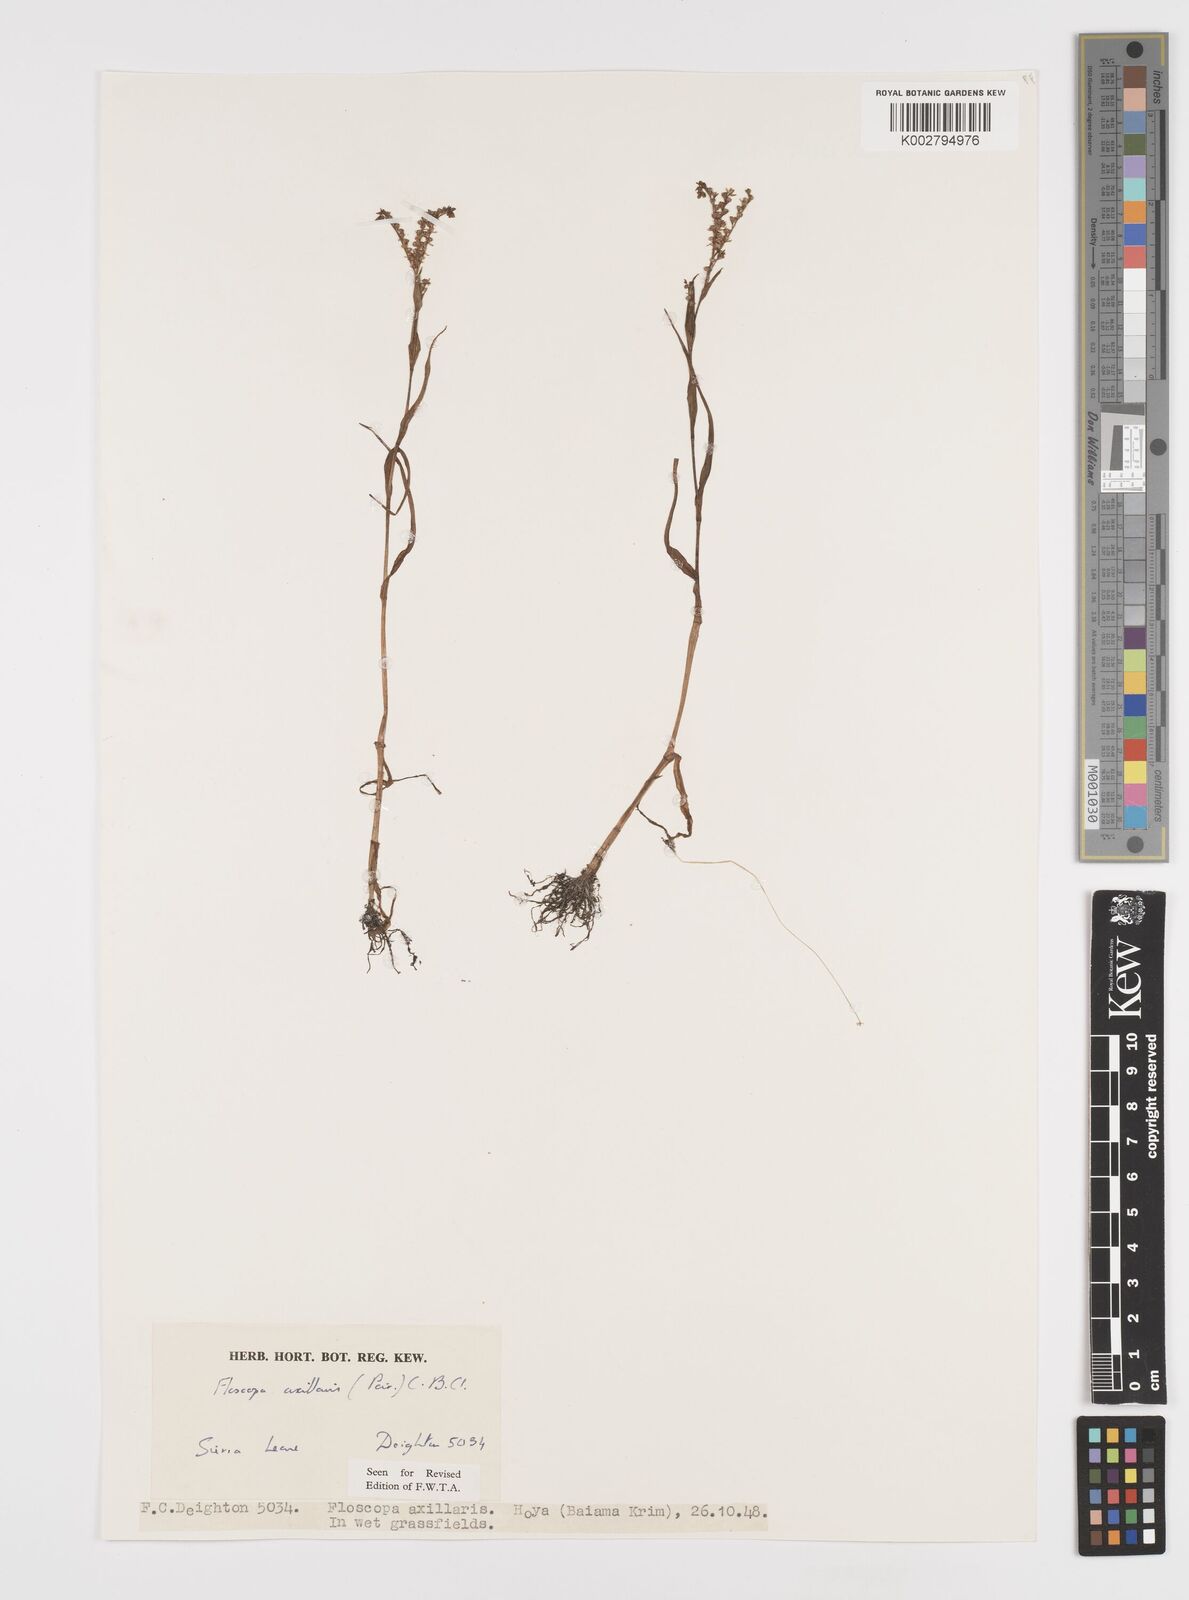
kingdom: Plantae
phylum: Tracheophyta
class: Liliopsida
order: Commelinales
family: Commelinaceae
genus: Floscopa
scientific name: Floscopa axillaris
